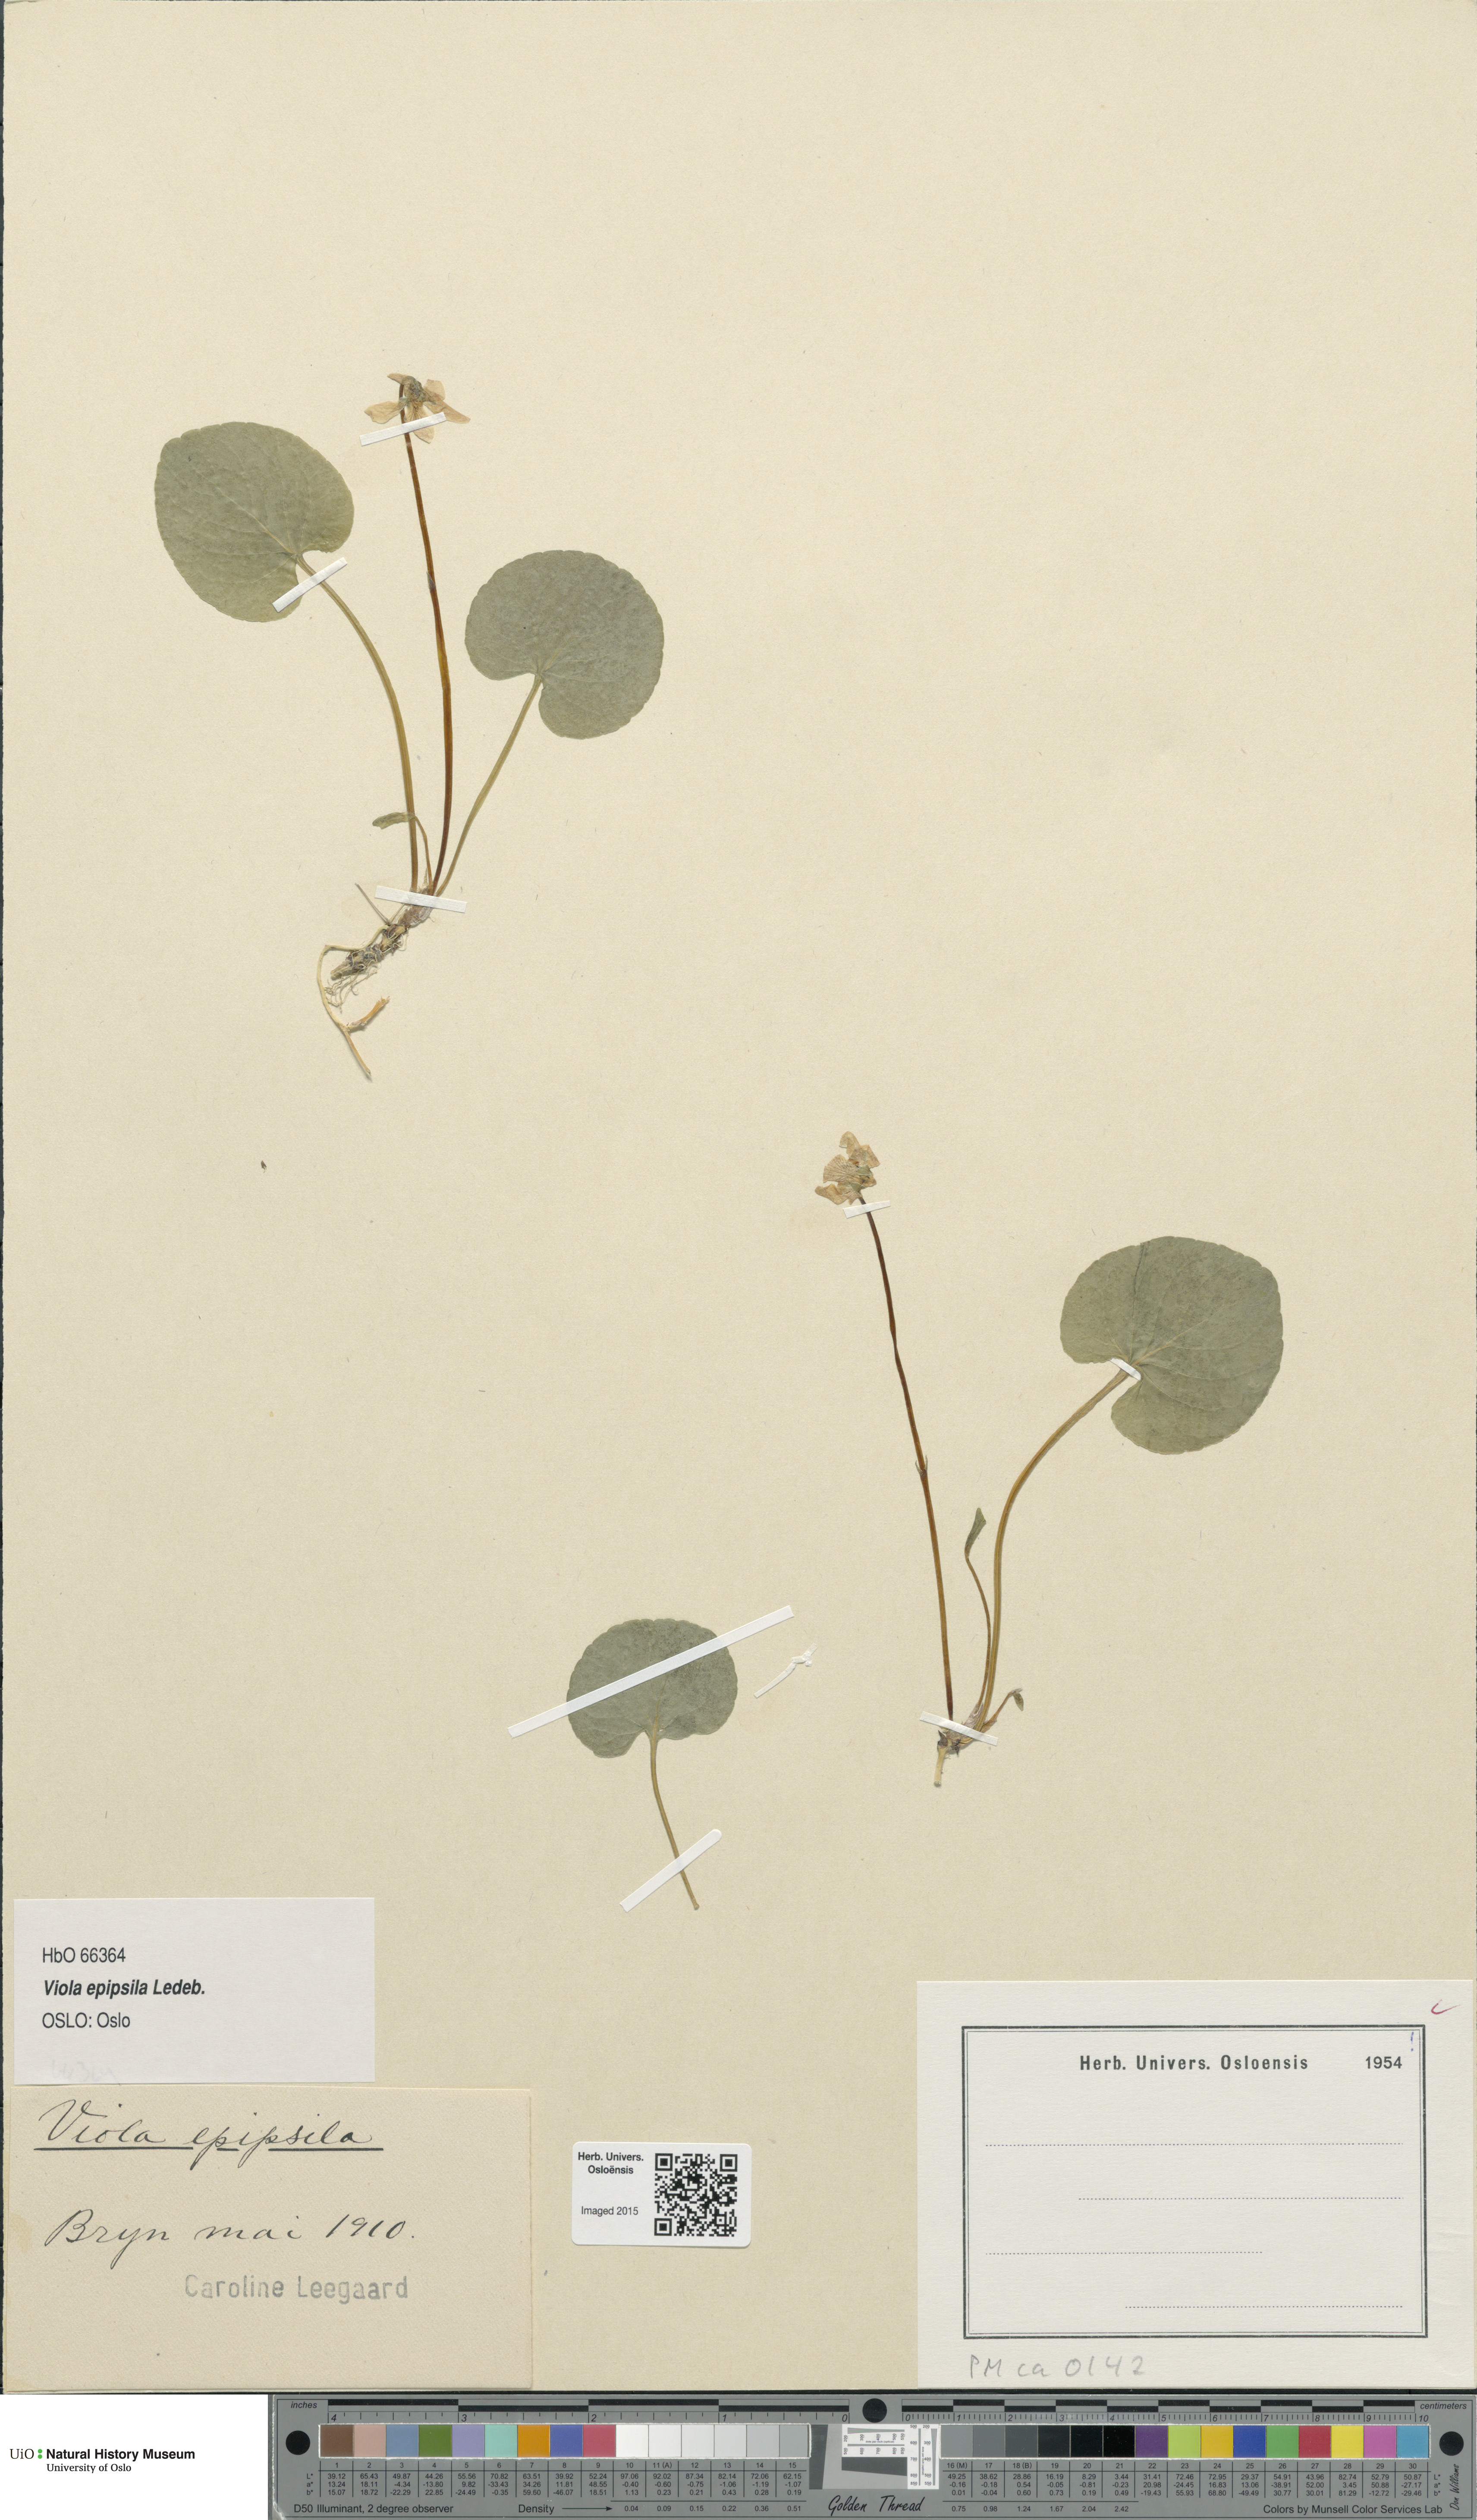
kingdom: Plantae
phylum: Tracheophyta
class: Magnoliopsida
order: Malpighiales
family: Violaceae
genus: Viola
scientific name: Viola epipsila
